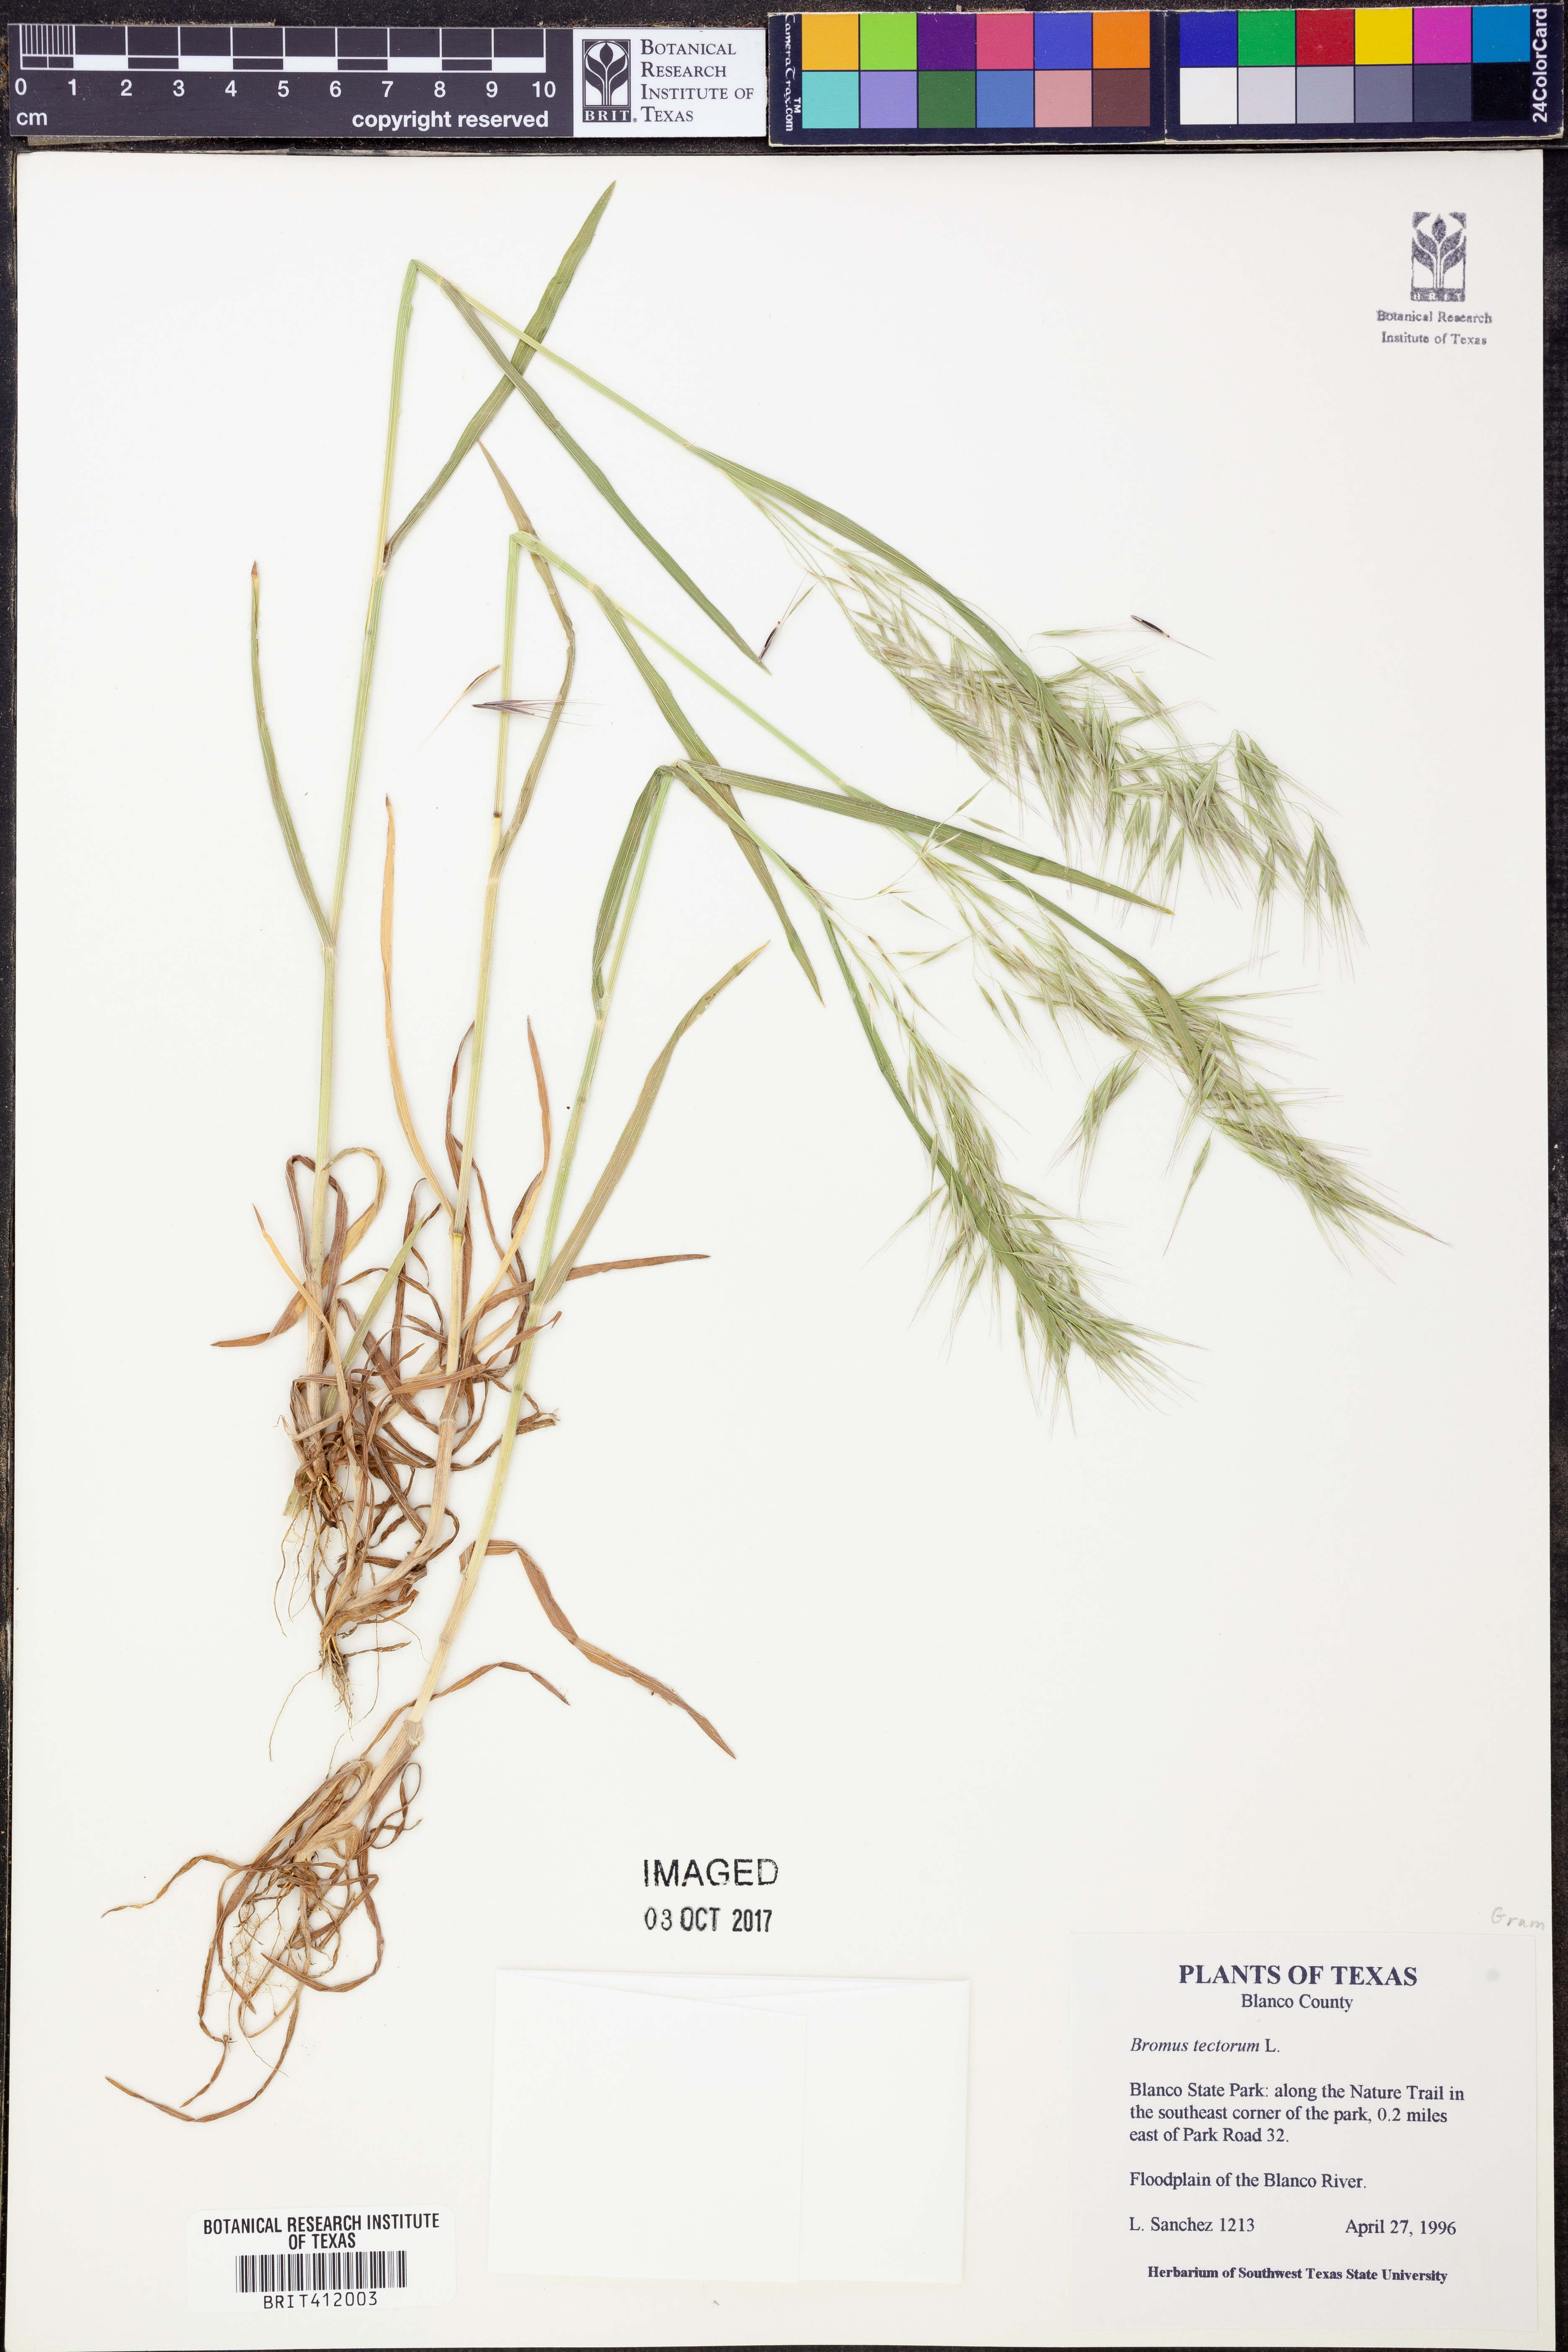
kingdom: Plantae
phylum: Tracheophyta
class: Liliopsida
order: Poales
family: Poaceae
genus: Bromus
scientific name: Bromus tectorum
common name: Cheatgrass
